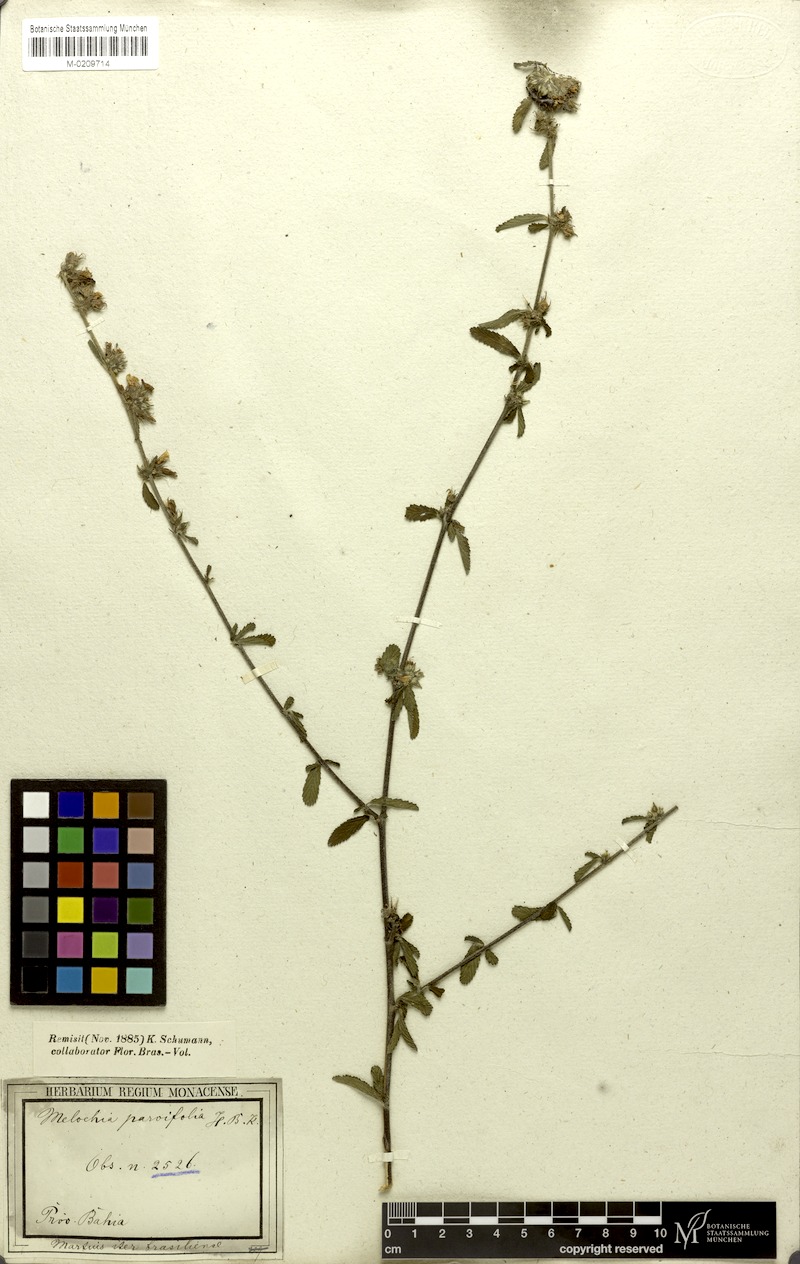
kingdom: Plantae
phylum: Tracheophyta
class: Magnoliopsida
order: Malvales
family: Malvaceae
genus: Melochia
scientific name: Melochia parvifolia
